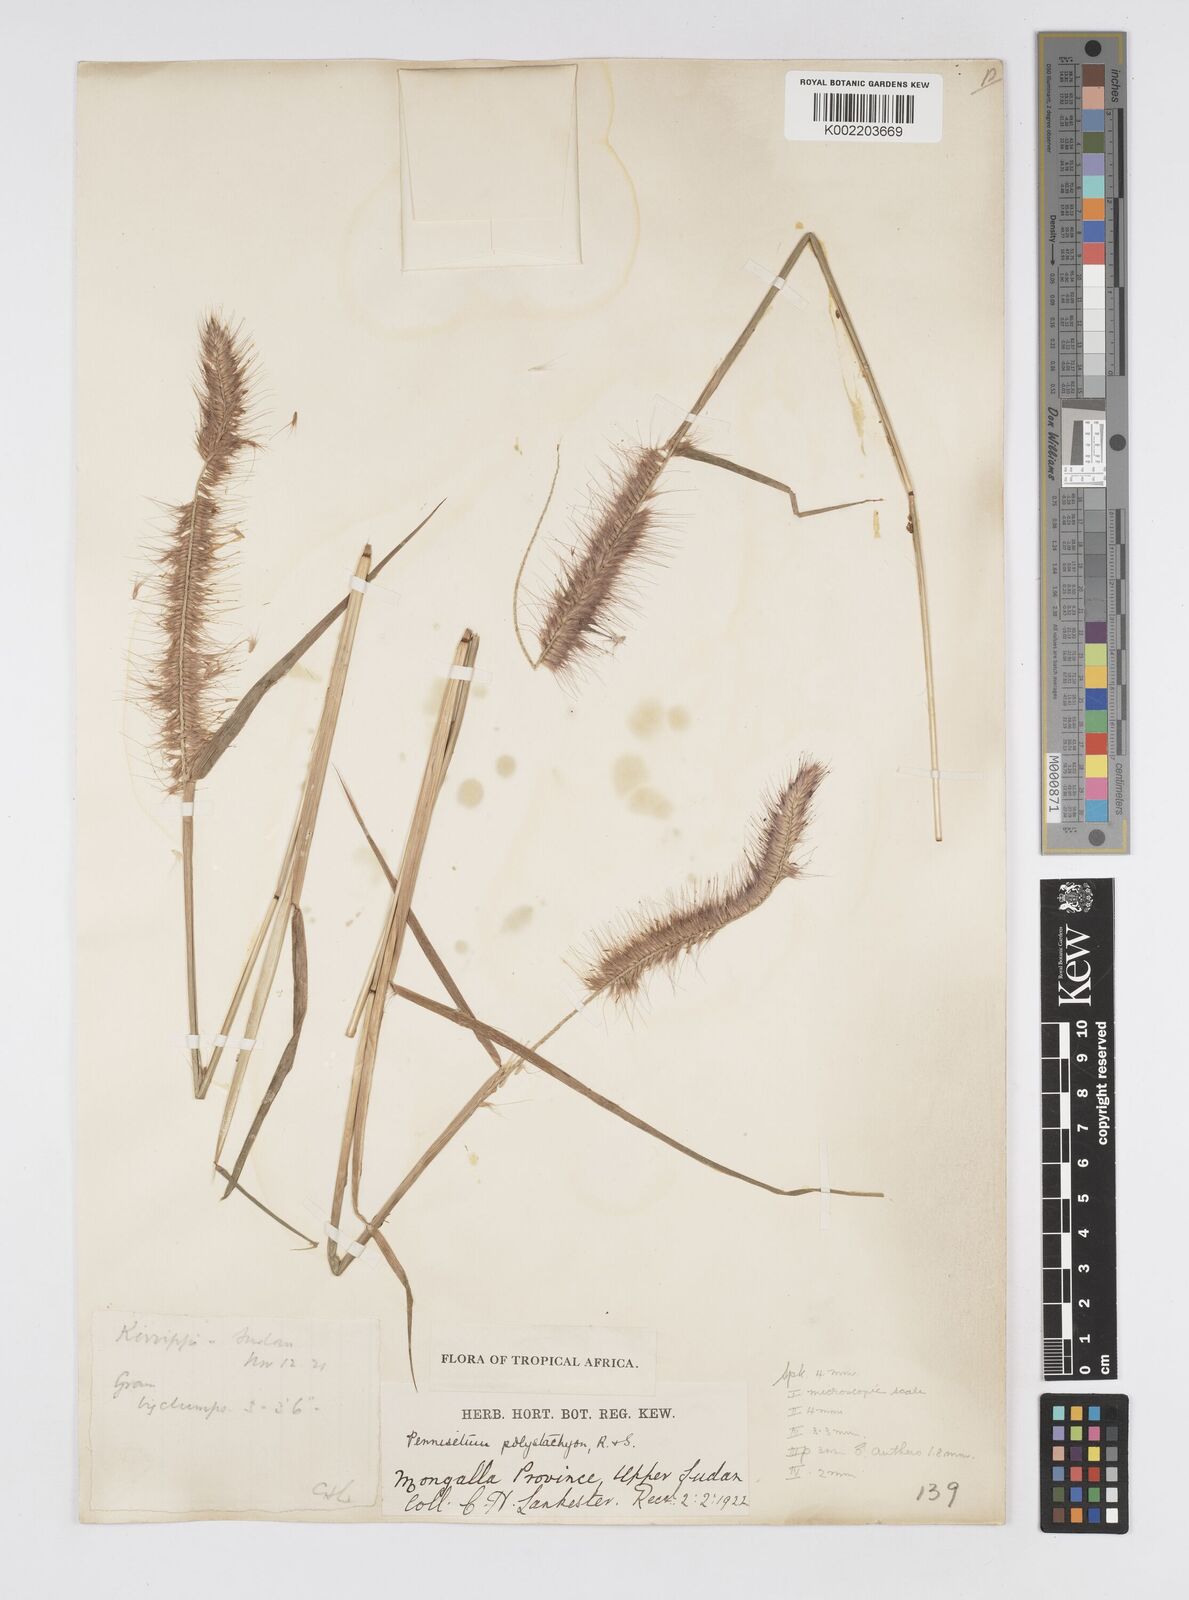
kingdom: Plantae
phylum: Tracheophyta
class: Liliopsida
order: Poales
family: Poaceae
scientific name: Poaceae
